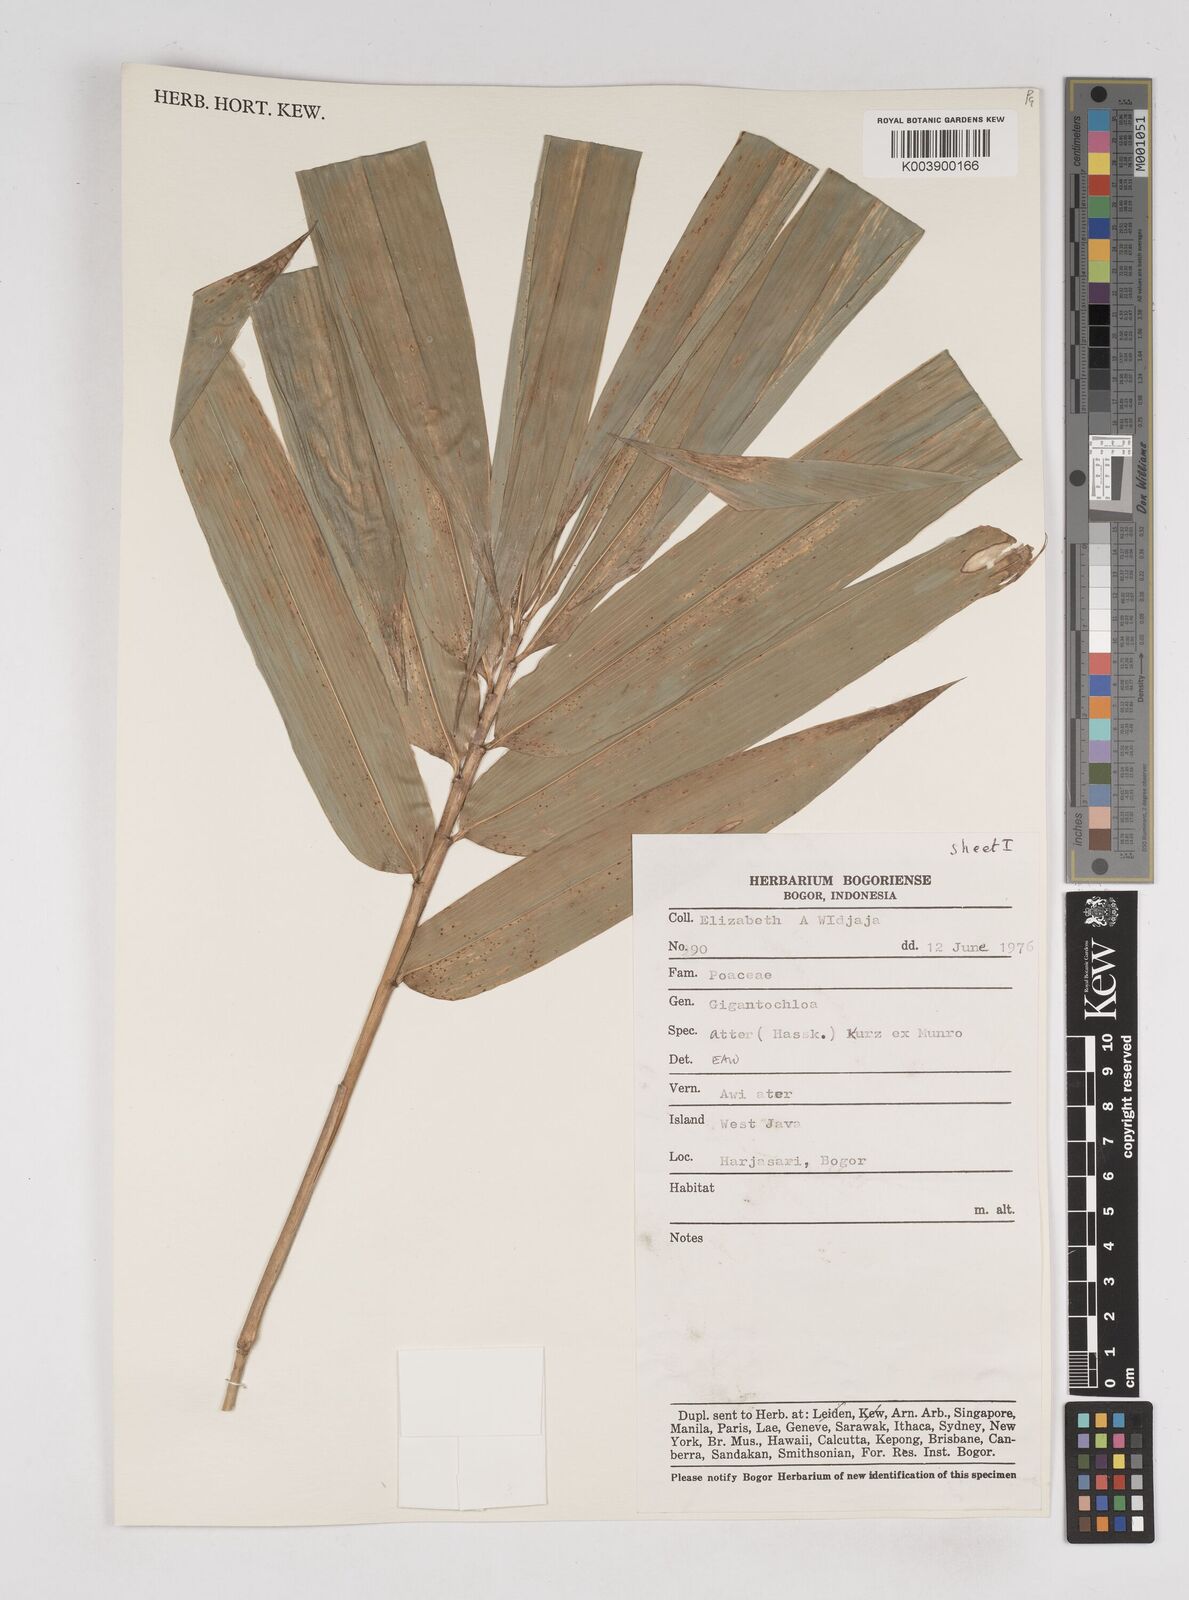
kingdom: Plantae
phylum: Tracheophyta
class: Liliopsida
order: Poales
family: Poaceae
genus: Gigantochloa
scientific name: Gigantochloa atter
